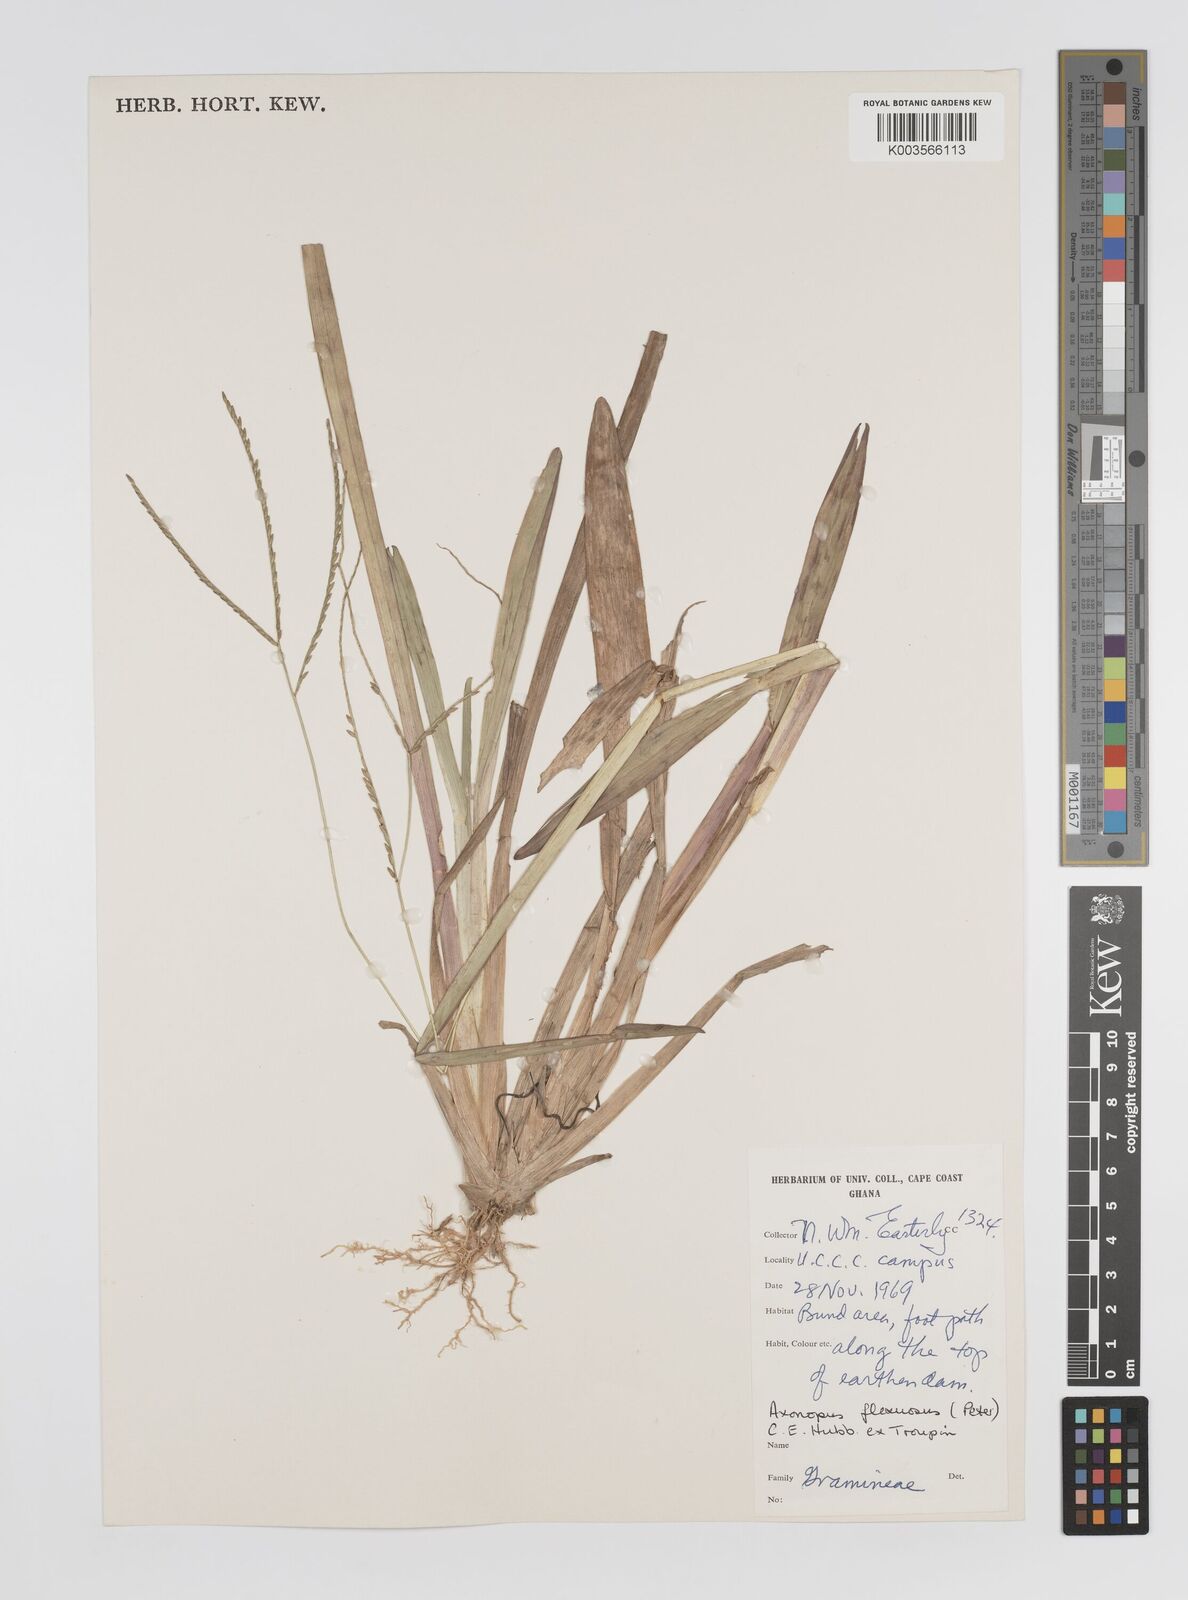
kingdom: Plantae
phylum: Tracheophyta
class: Liliopsida
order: Poales
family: Poaceae
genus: Axonopus
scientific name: Axonopus flexuosus
